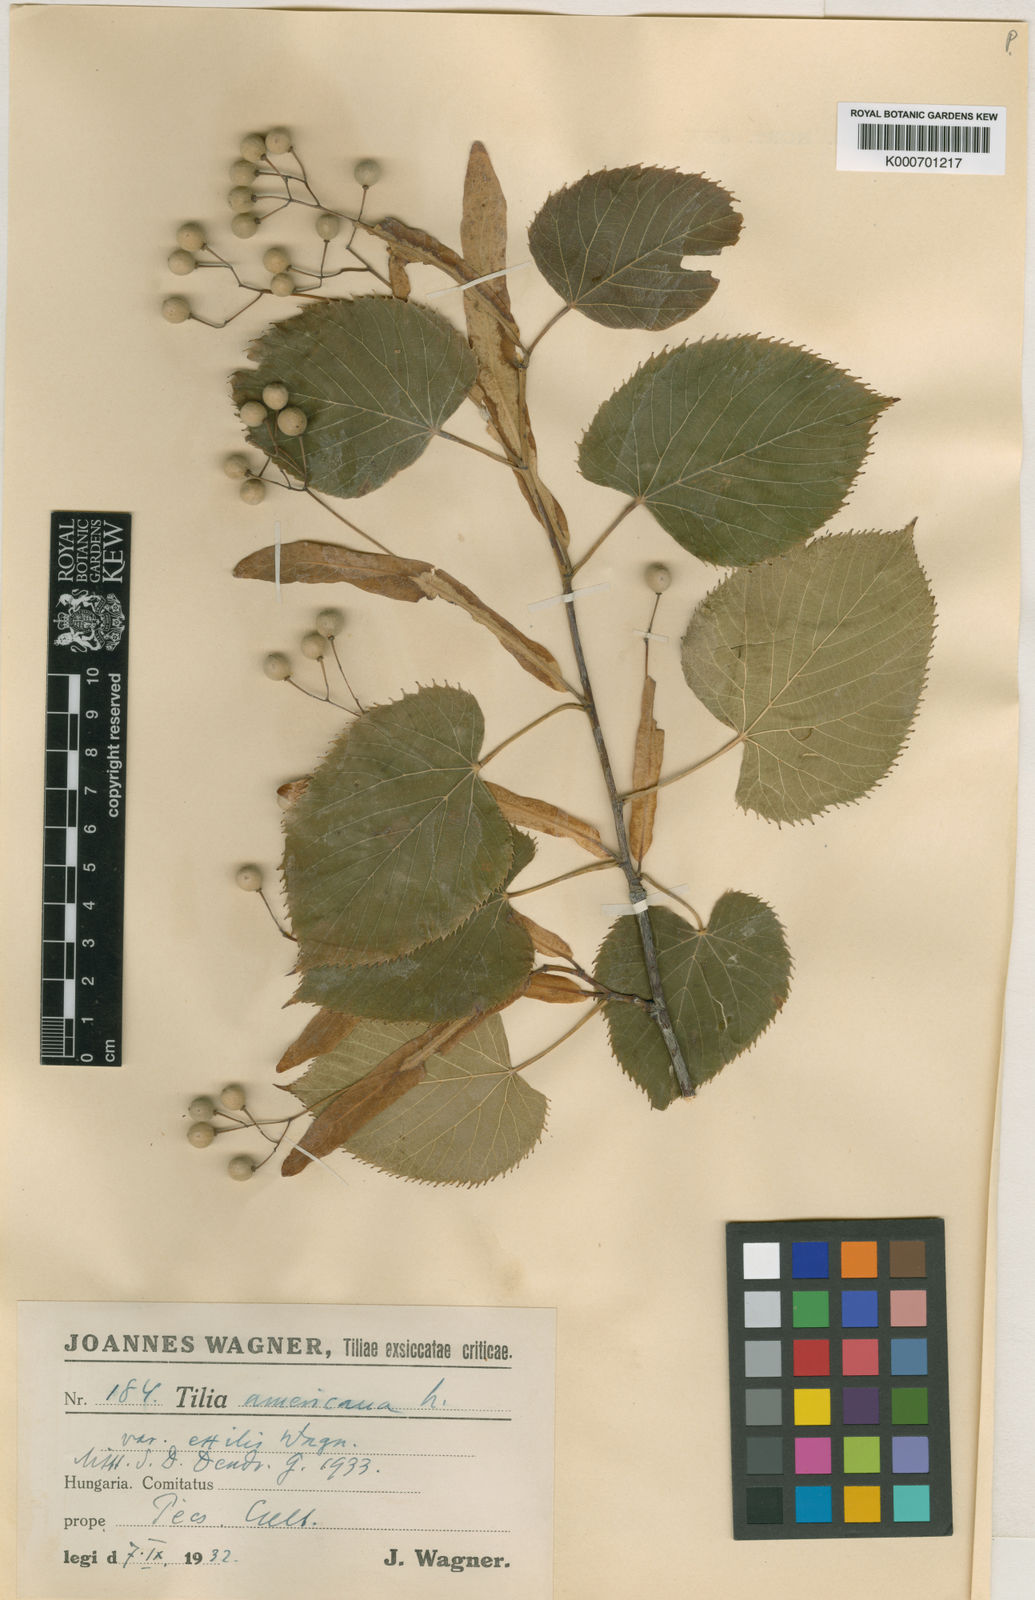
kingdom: Plantae
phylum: Tracheophyta
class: Magnoliopsida
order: Malvales
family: Malvaceae
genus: Tilia
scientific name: Tilia americana
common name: Basswood
